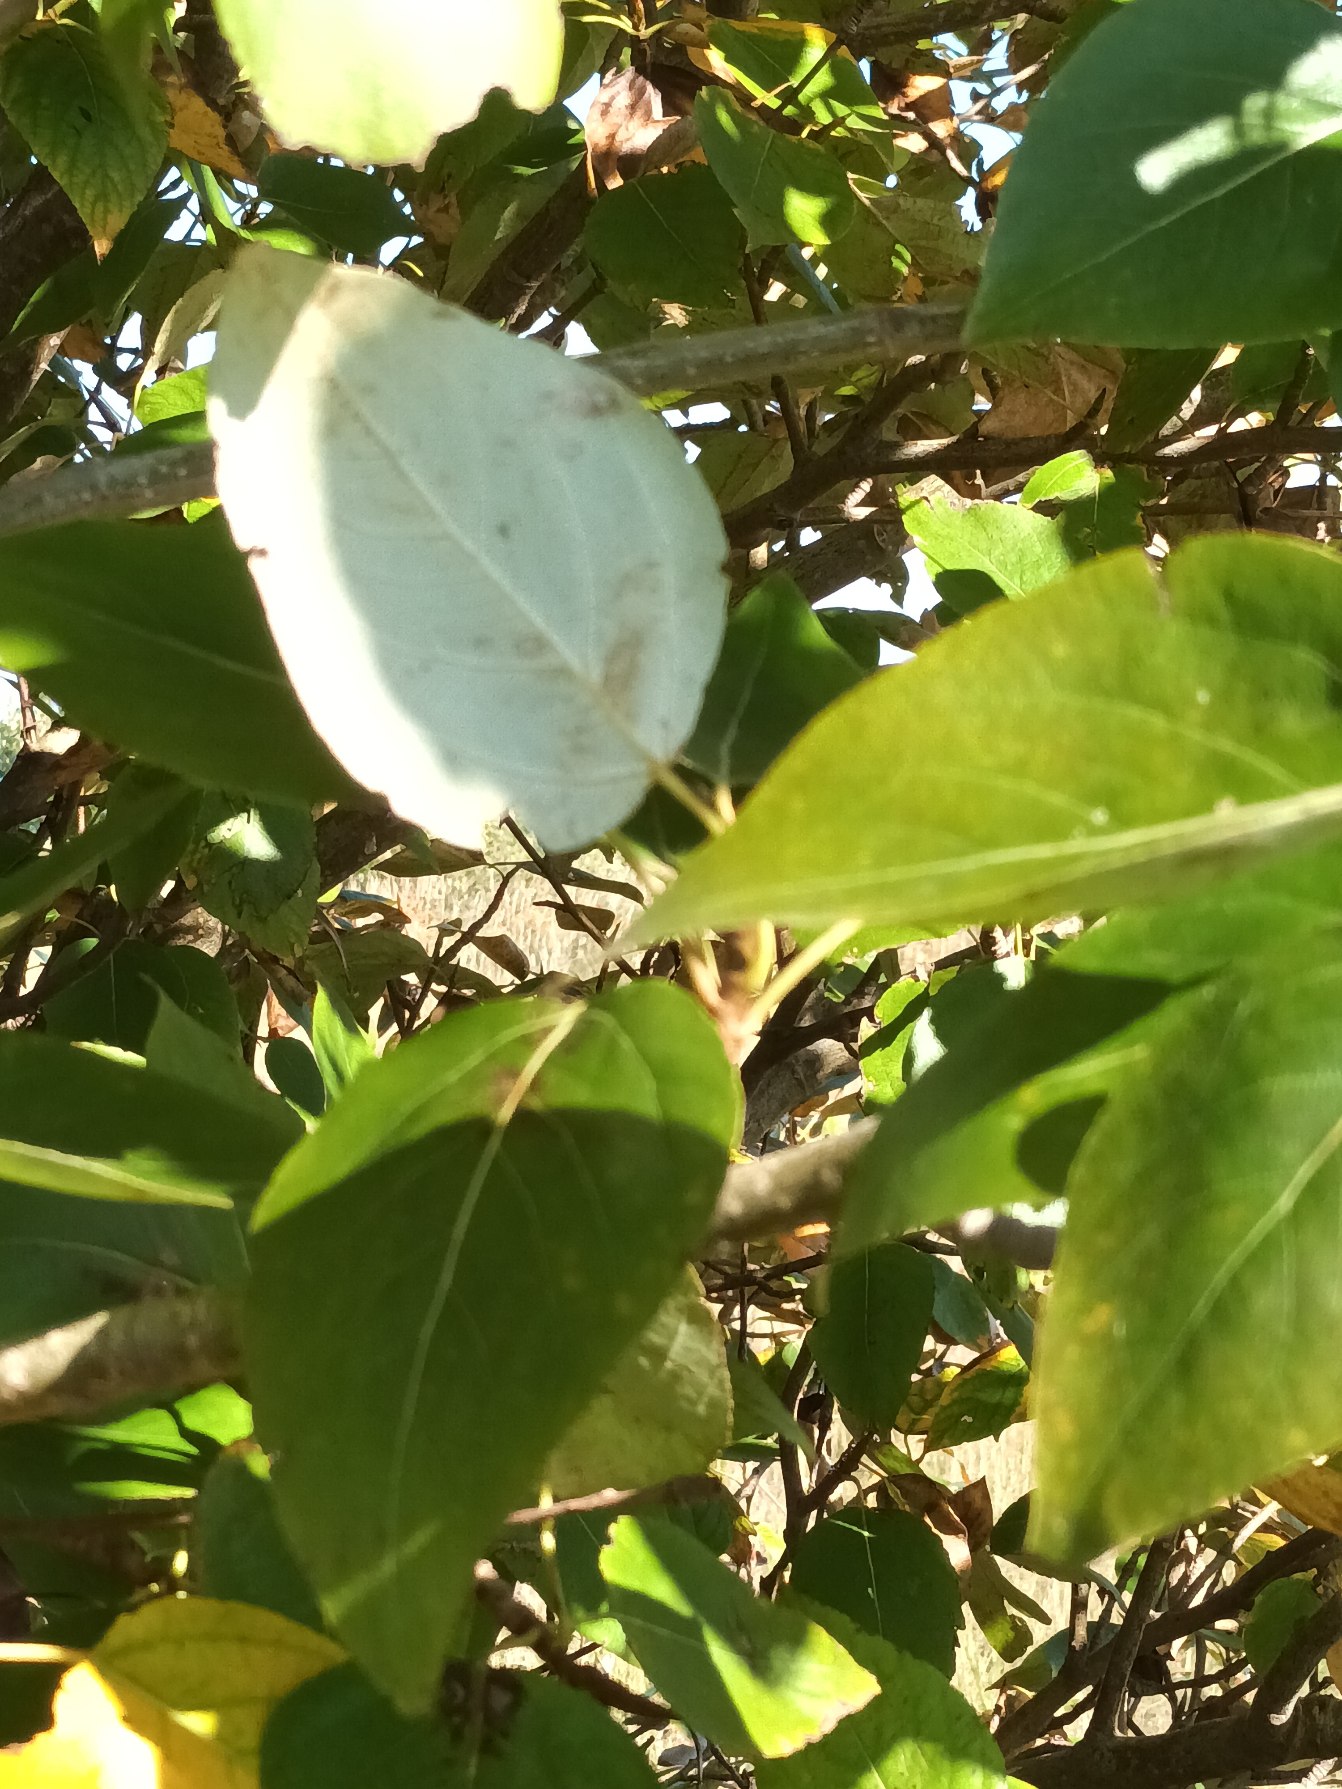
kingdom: Plantae
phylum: Tracheophyta
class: Magnoliopsida
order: Malpighiales
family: Salicaceae
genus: Populus
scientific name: Populus trichocarpa
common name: Vestamerikansk poppel
